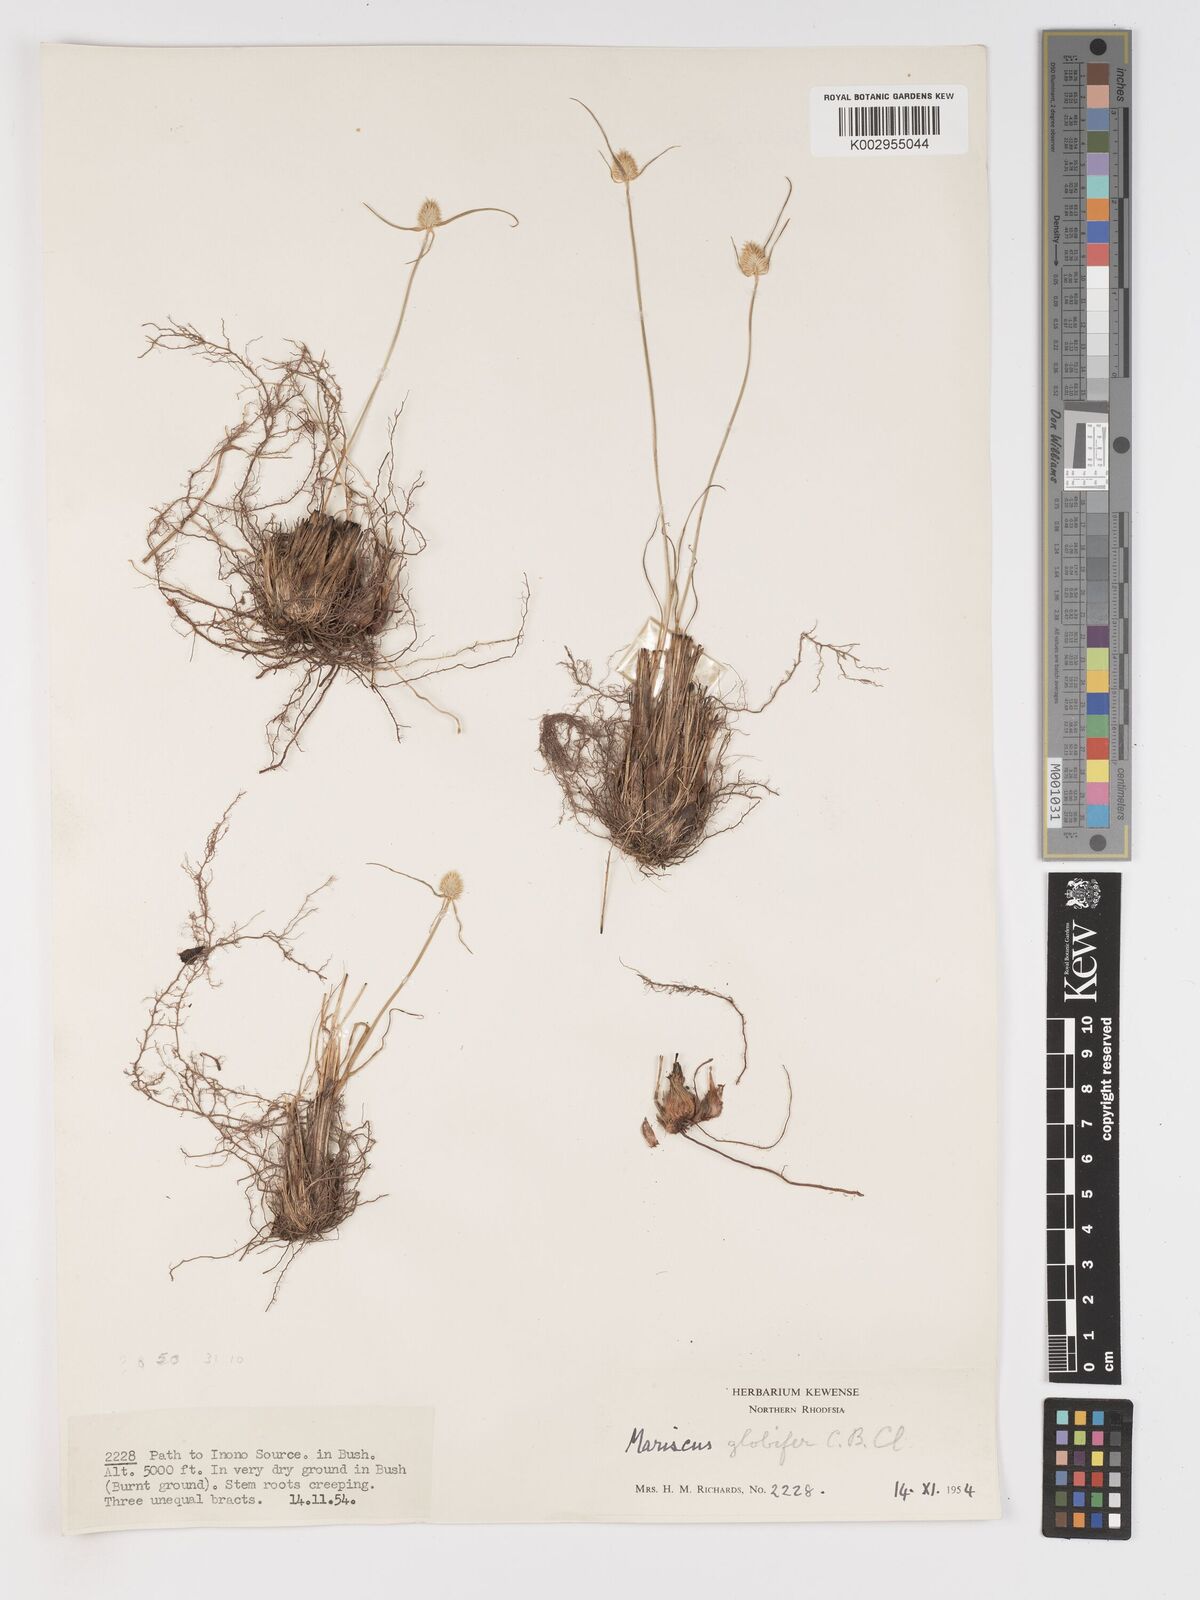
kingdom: Plantae
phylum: Tracheophyta
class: Liliopsida
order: Poales
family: Cyperaceae
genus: Cyperus
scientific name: Cyperus mollipes
